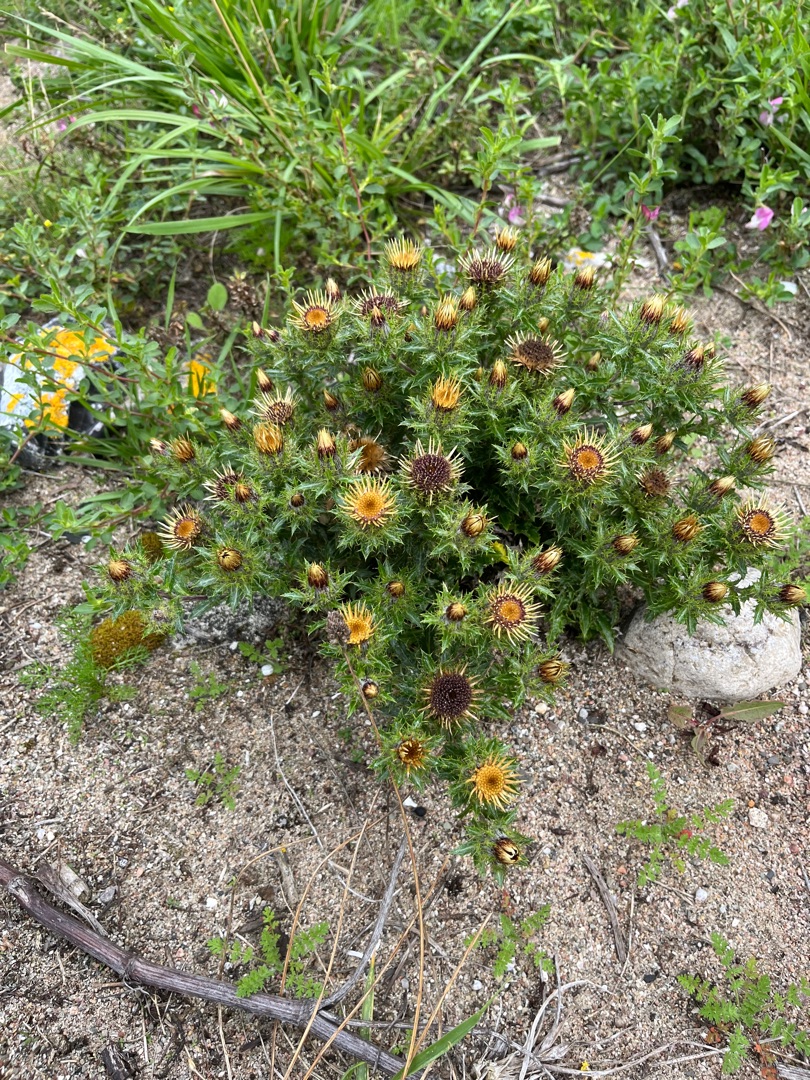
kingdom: Plantae
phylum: Tracheophyta
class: Magnoliopsida
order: Asterales
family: Asteraceae
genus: Carlina
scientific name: Carlina vulgaris
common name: Bakketidsel
